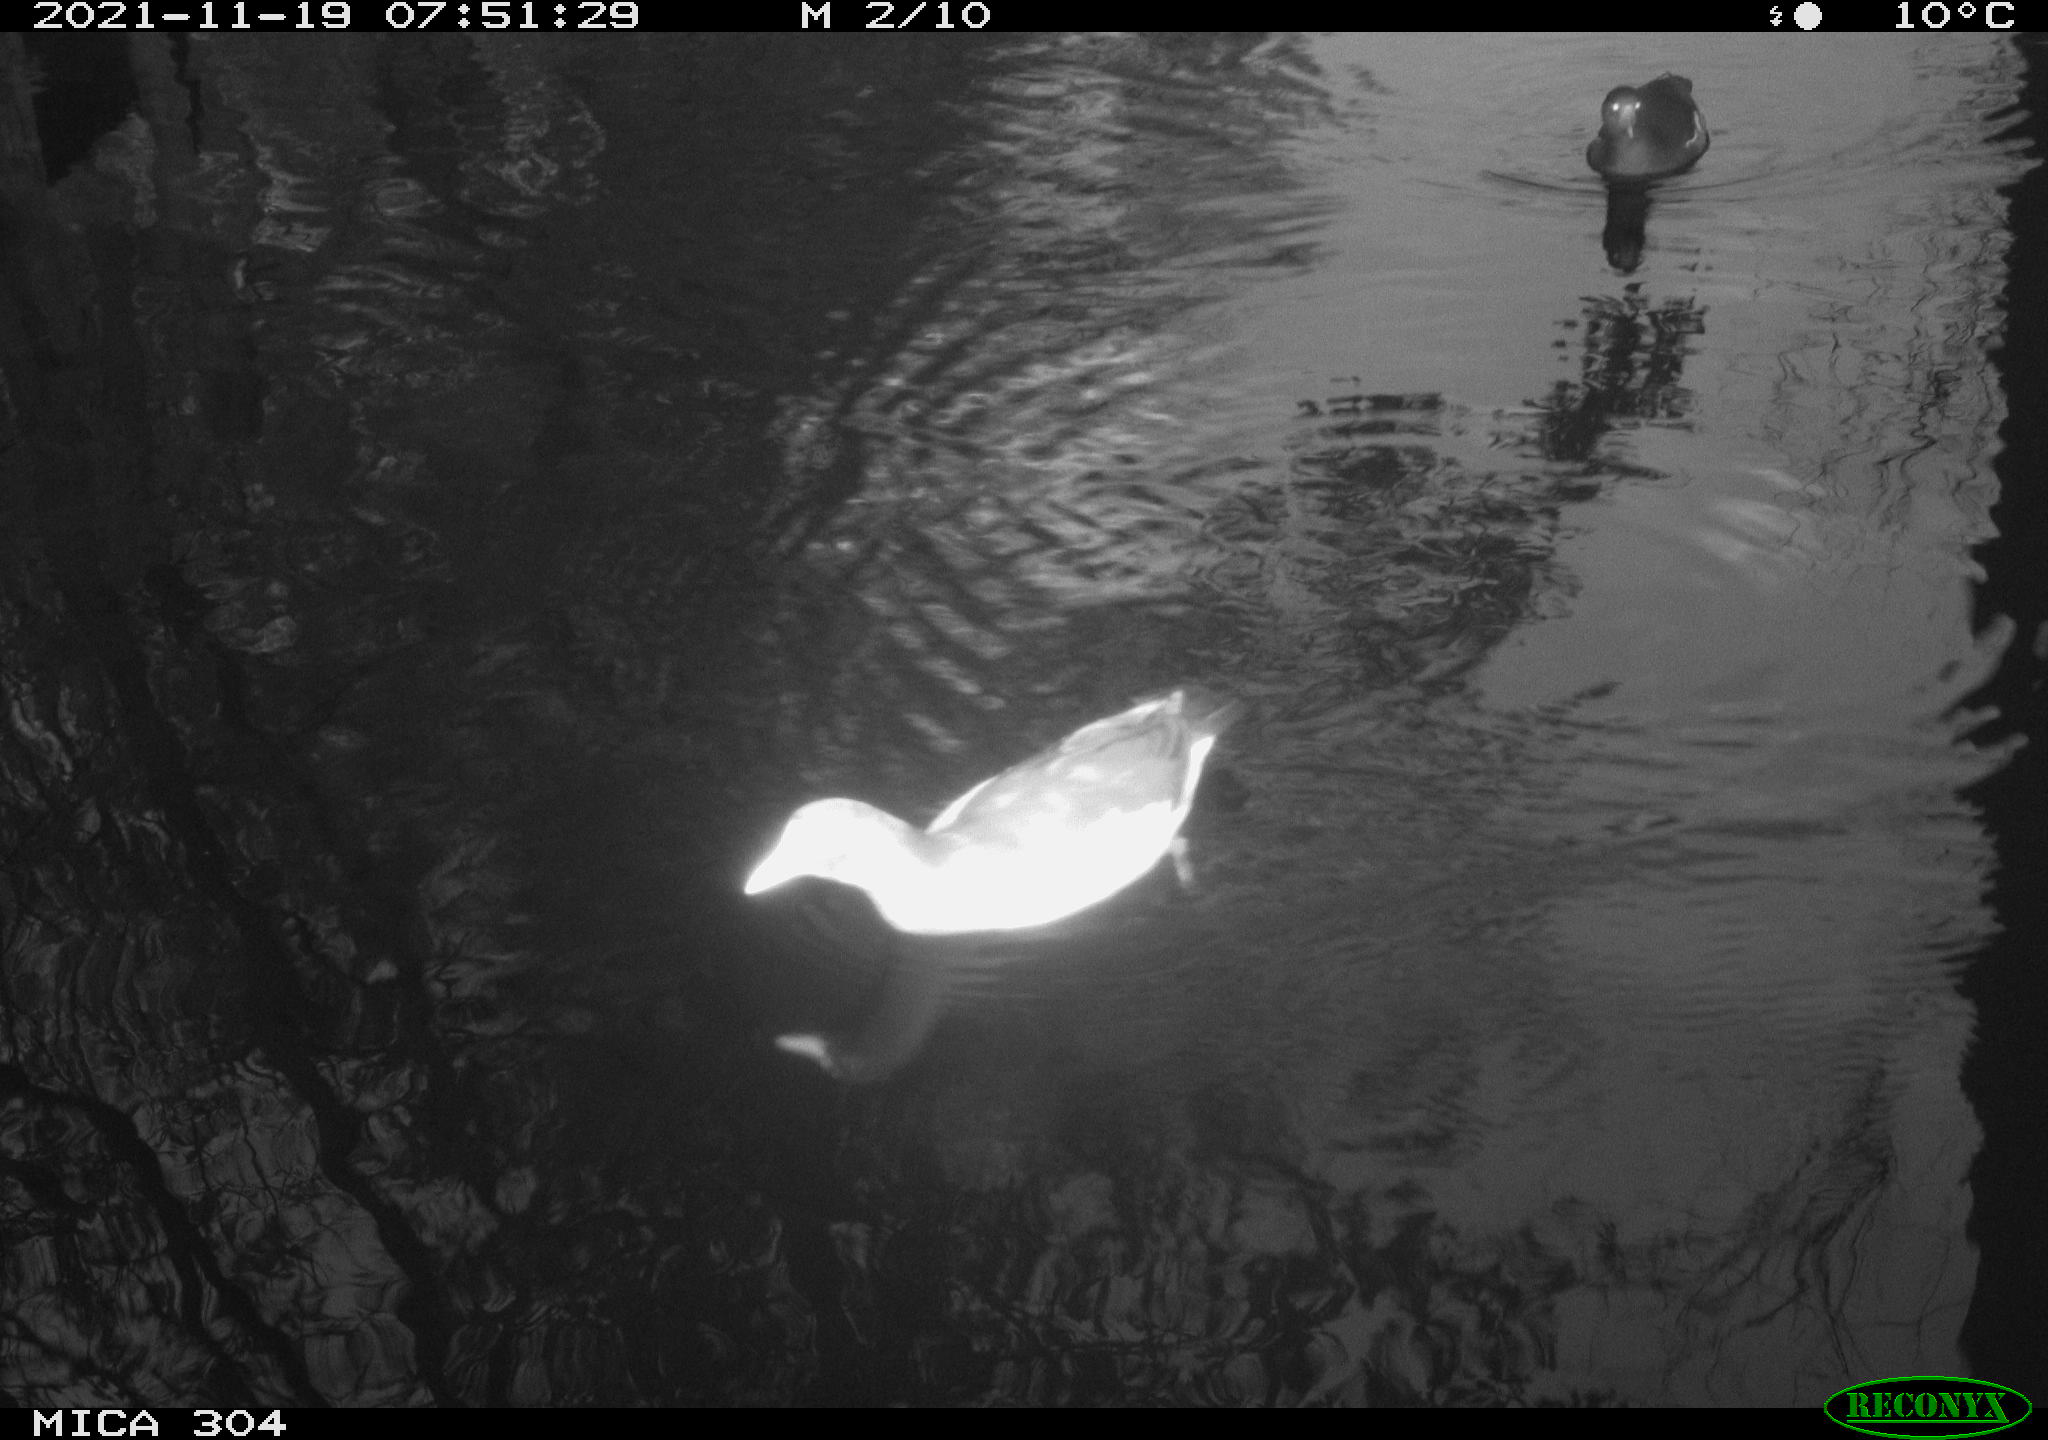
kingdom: Animalia
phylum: Chordata
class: Aves
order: Gruiformes
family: Rallidae
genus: Fulica
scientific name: Fulica atra
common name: Eurasian coot
